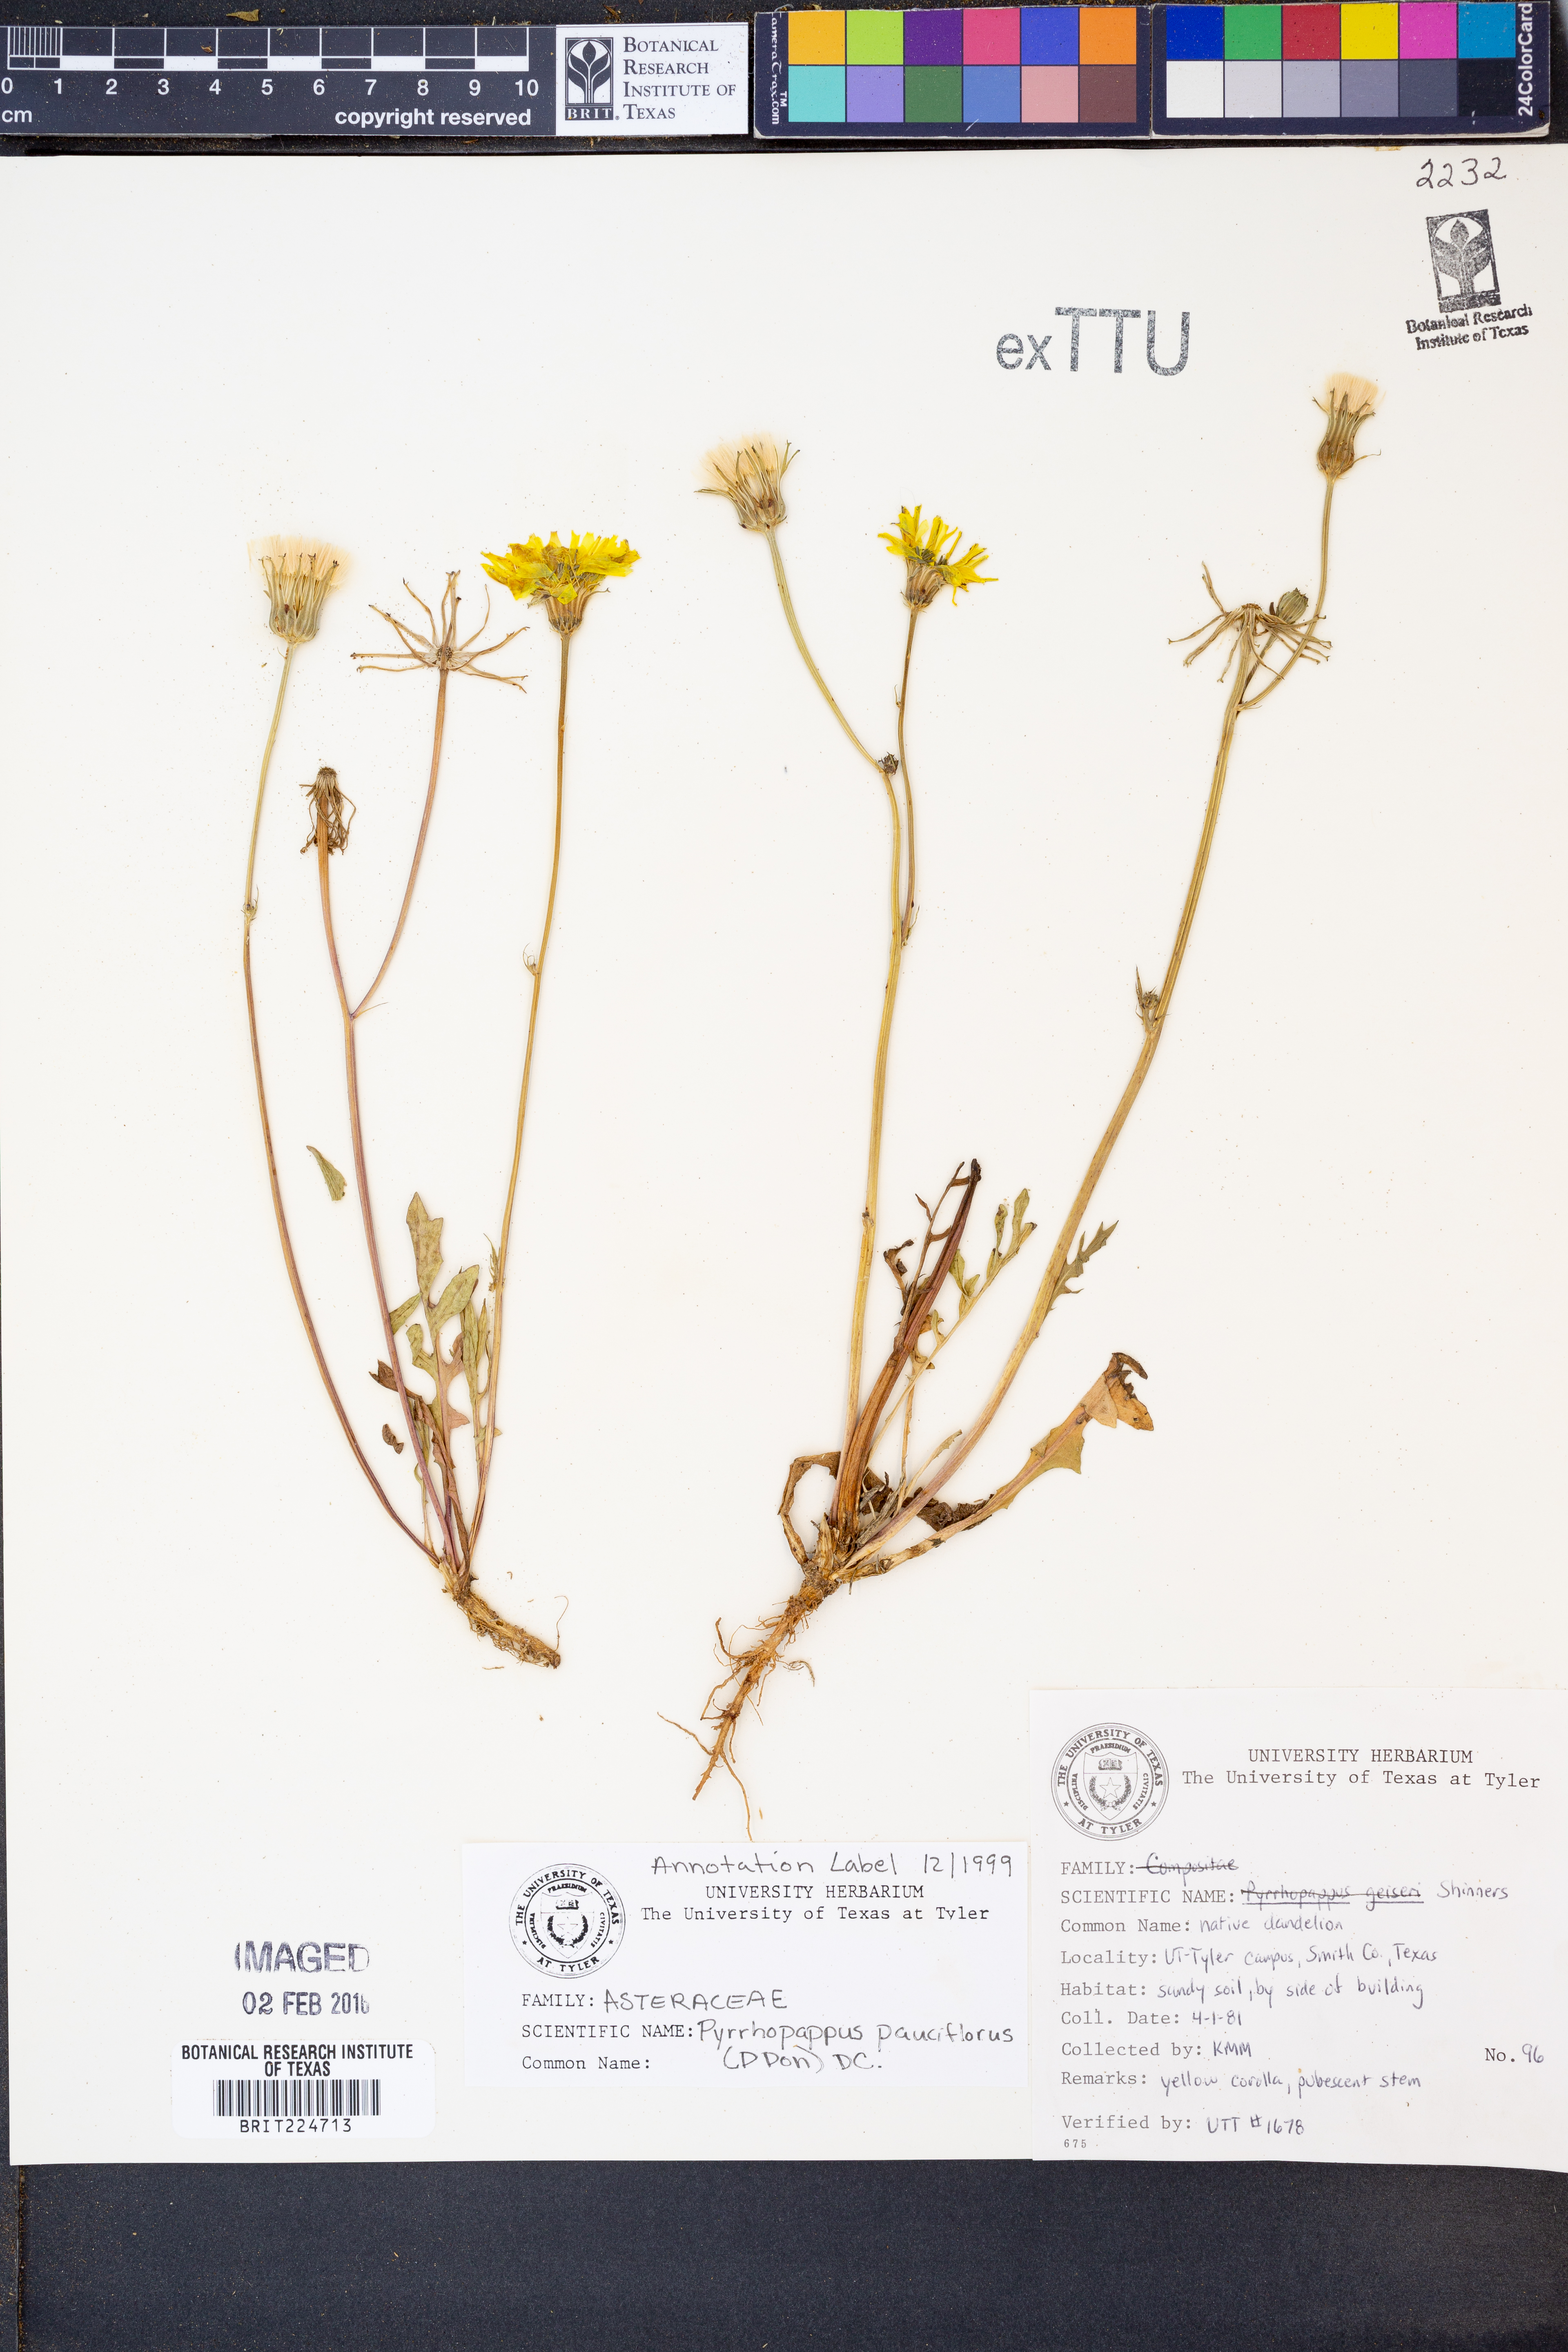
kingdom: Plantae
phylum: Tracheophyta
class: Magnoliopsida
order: Asterales
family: Asteraceae
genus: Pyrrhopappus
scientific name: Pyrrhopappus pauciflorus
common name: Texas false dandelion
